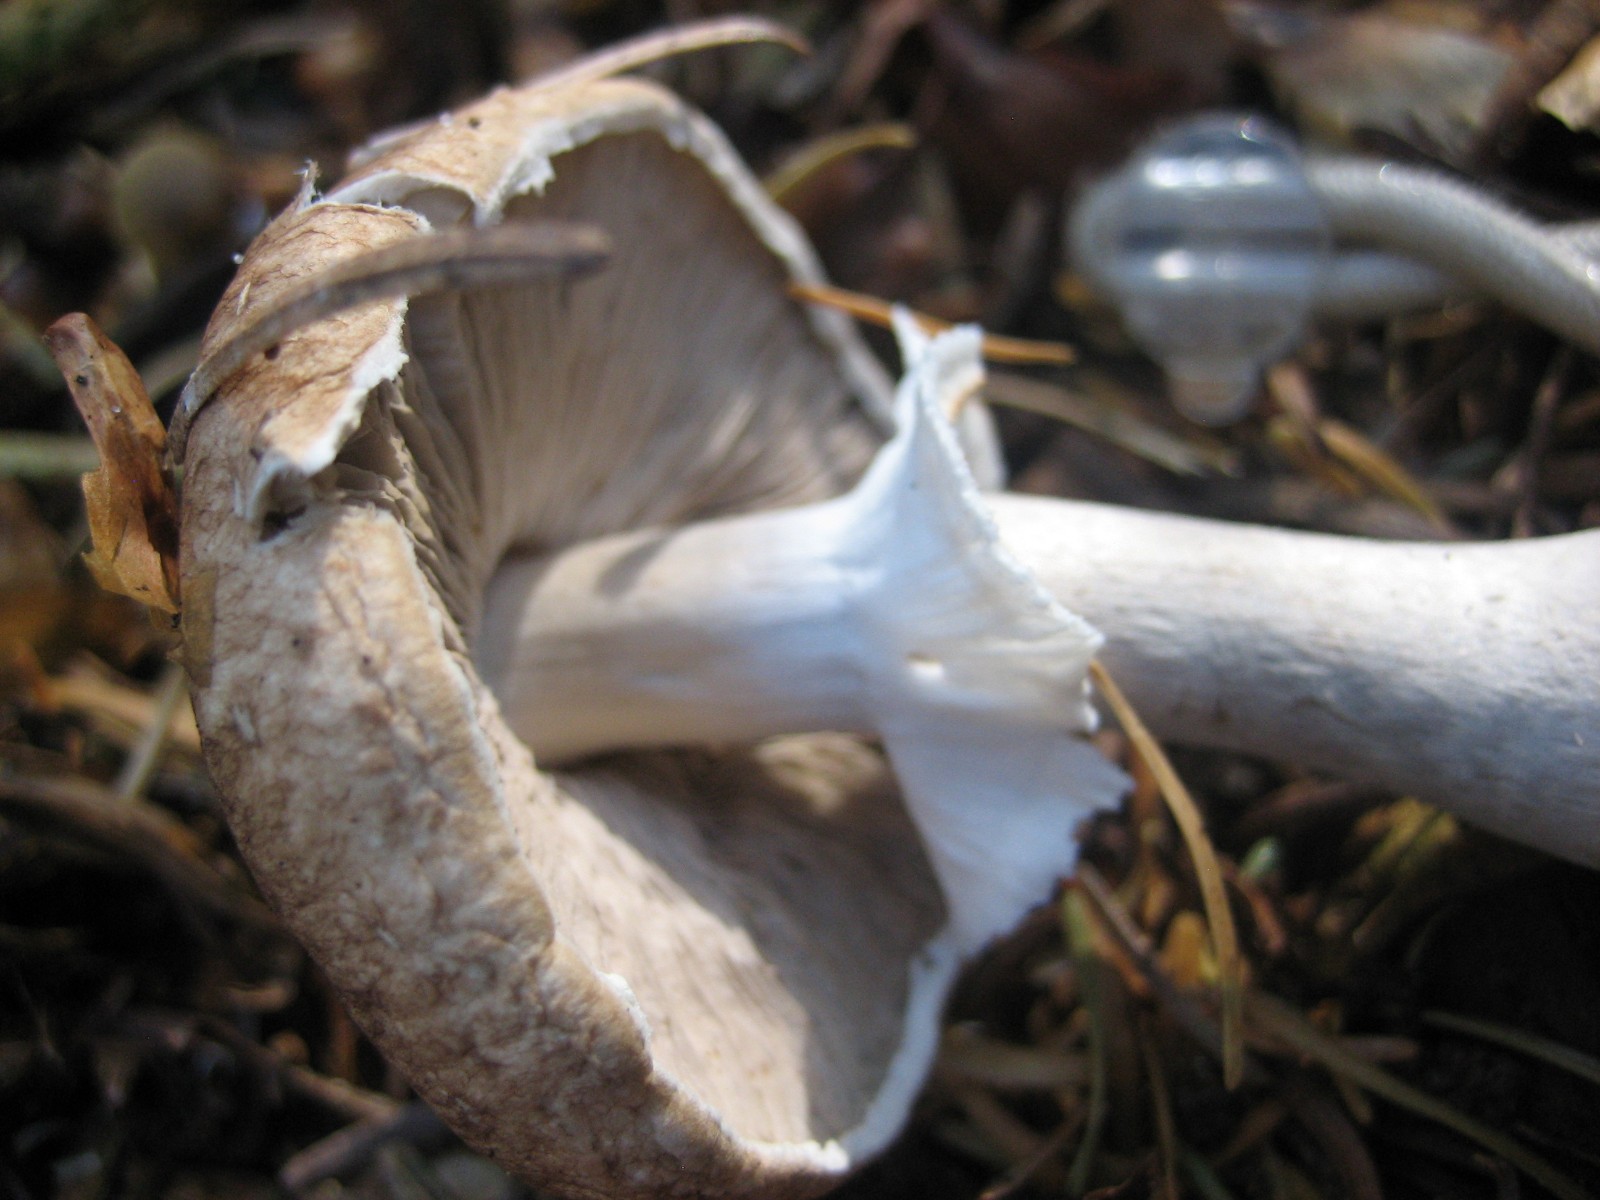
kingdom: Fungi
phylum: Basidiomycota
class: Agaricomycetes
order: Agaricales
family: Agaricaceae
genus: Agaricus
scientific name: Agaricus
